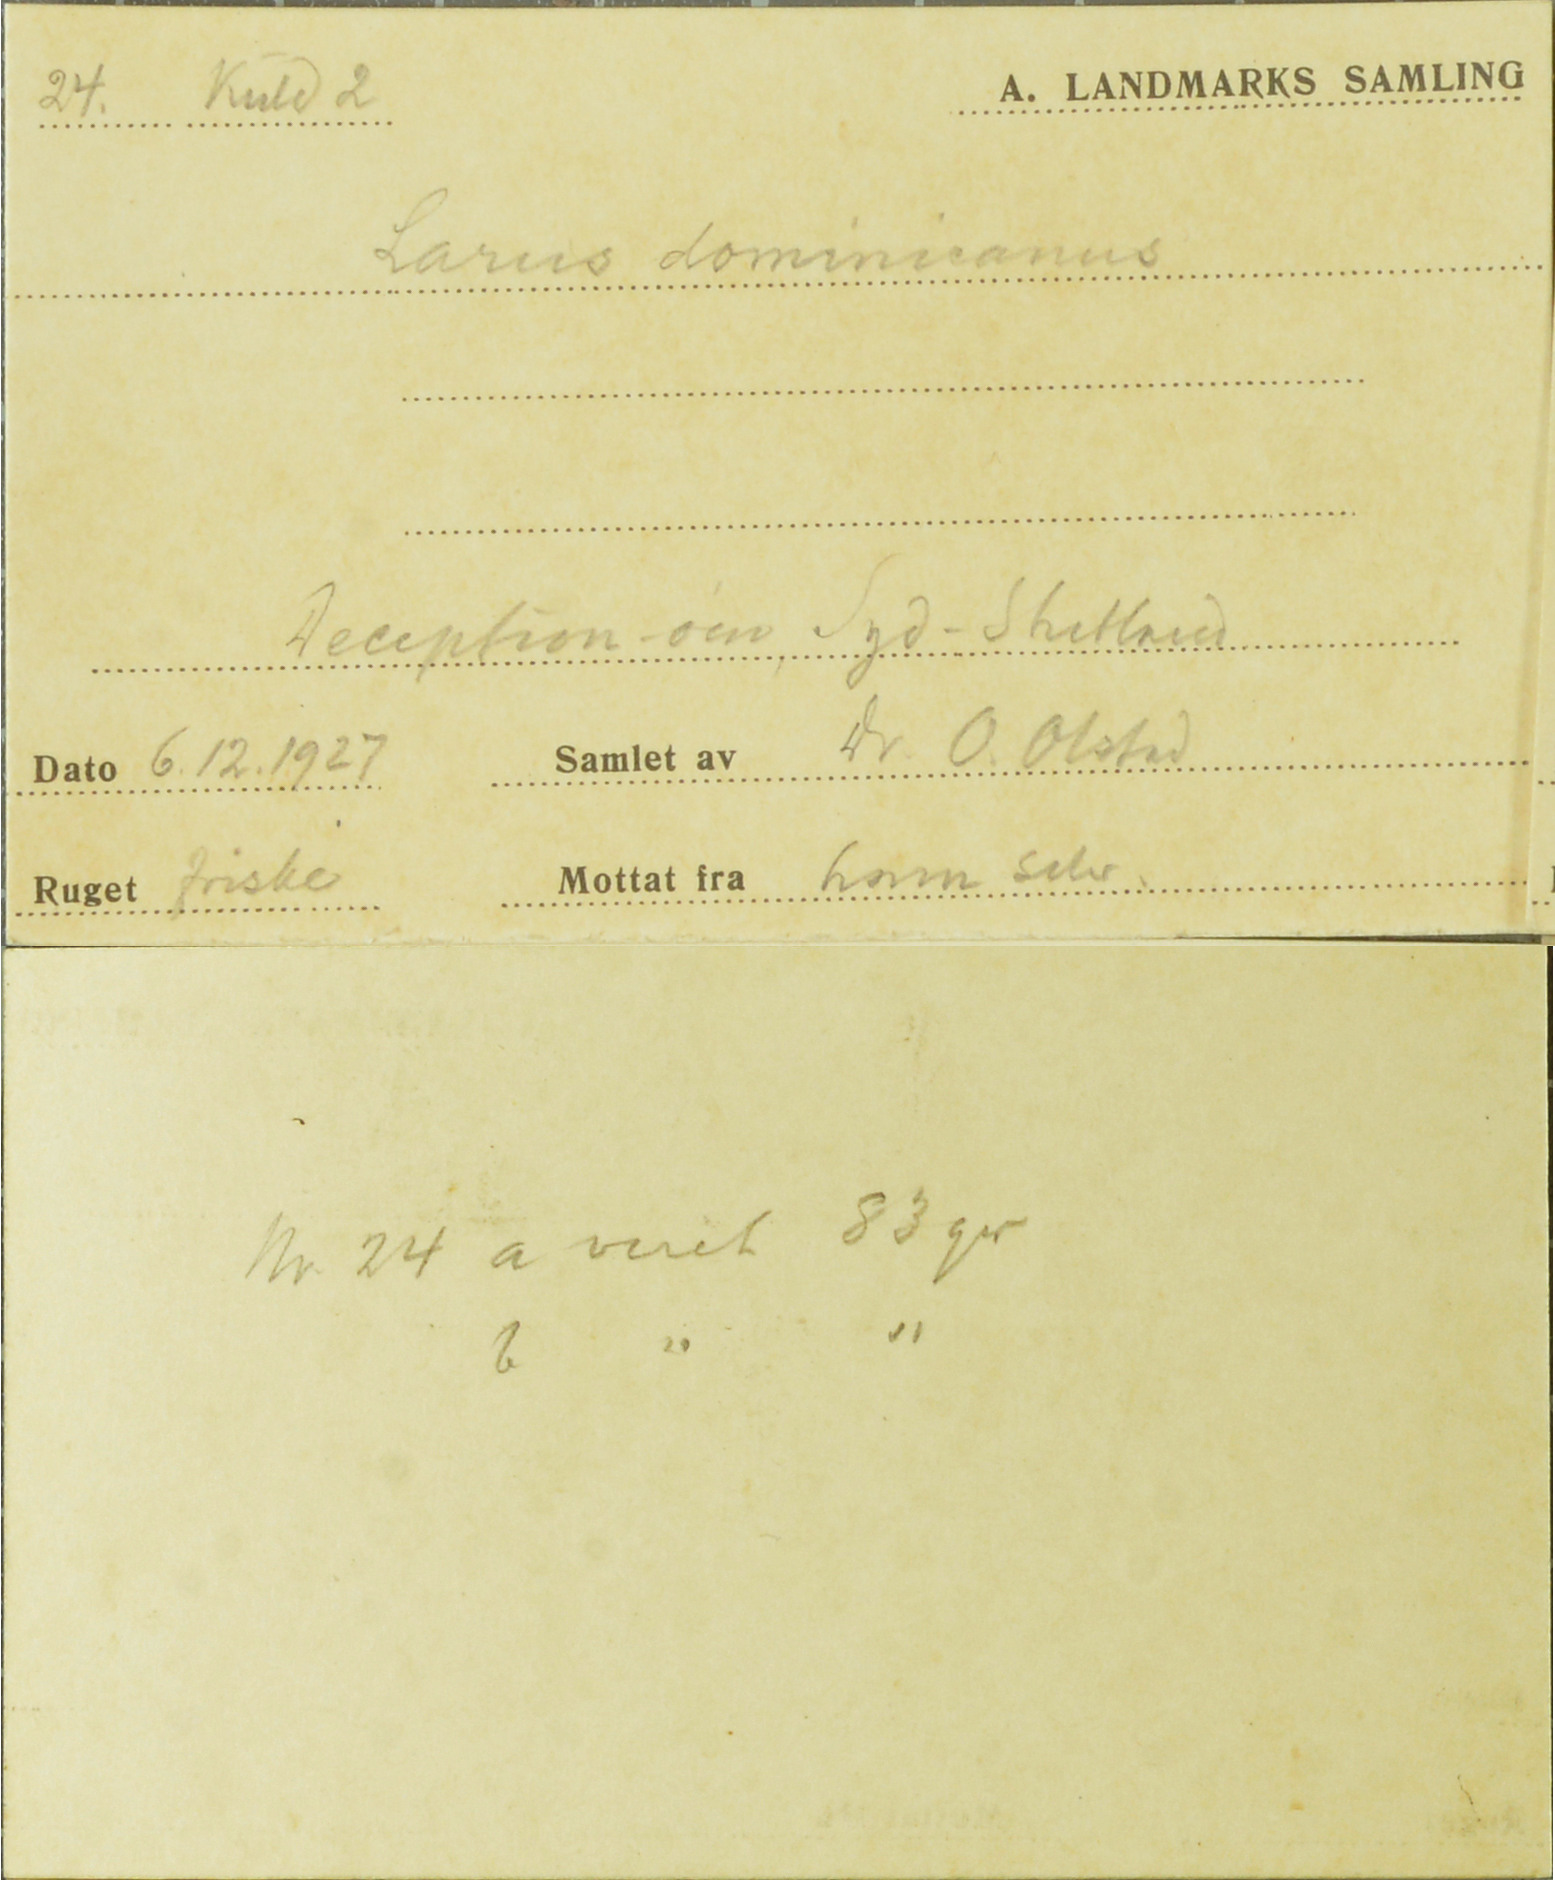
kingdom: Animalia
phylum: Chordata
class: Aves
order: Charadriiformes
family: Laridae
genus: Larus
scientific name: Larus dominicanus
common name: Kelp gull
